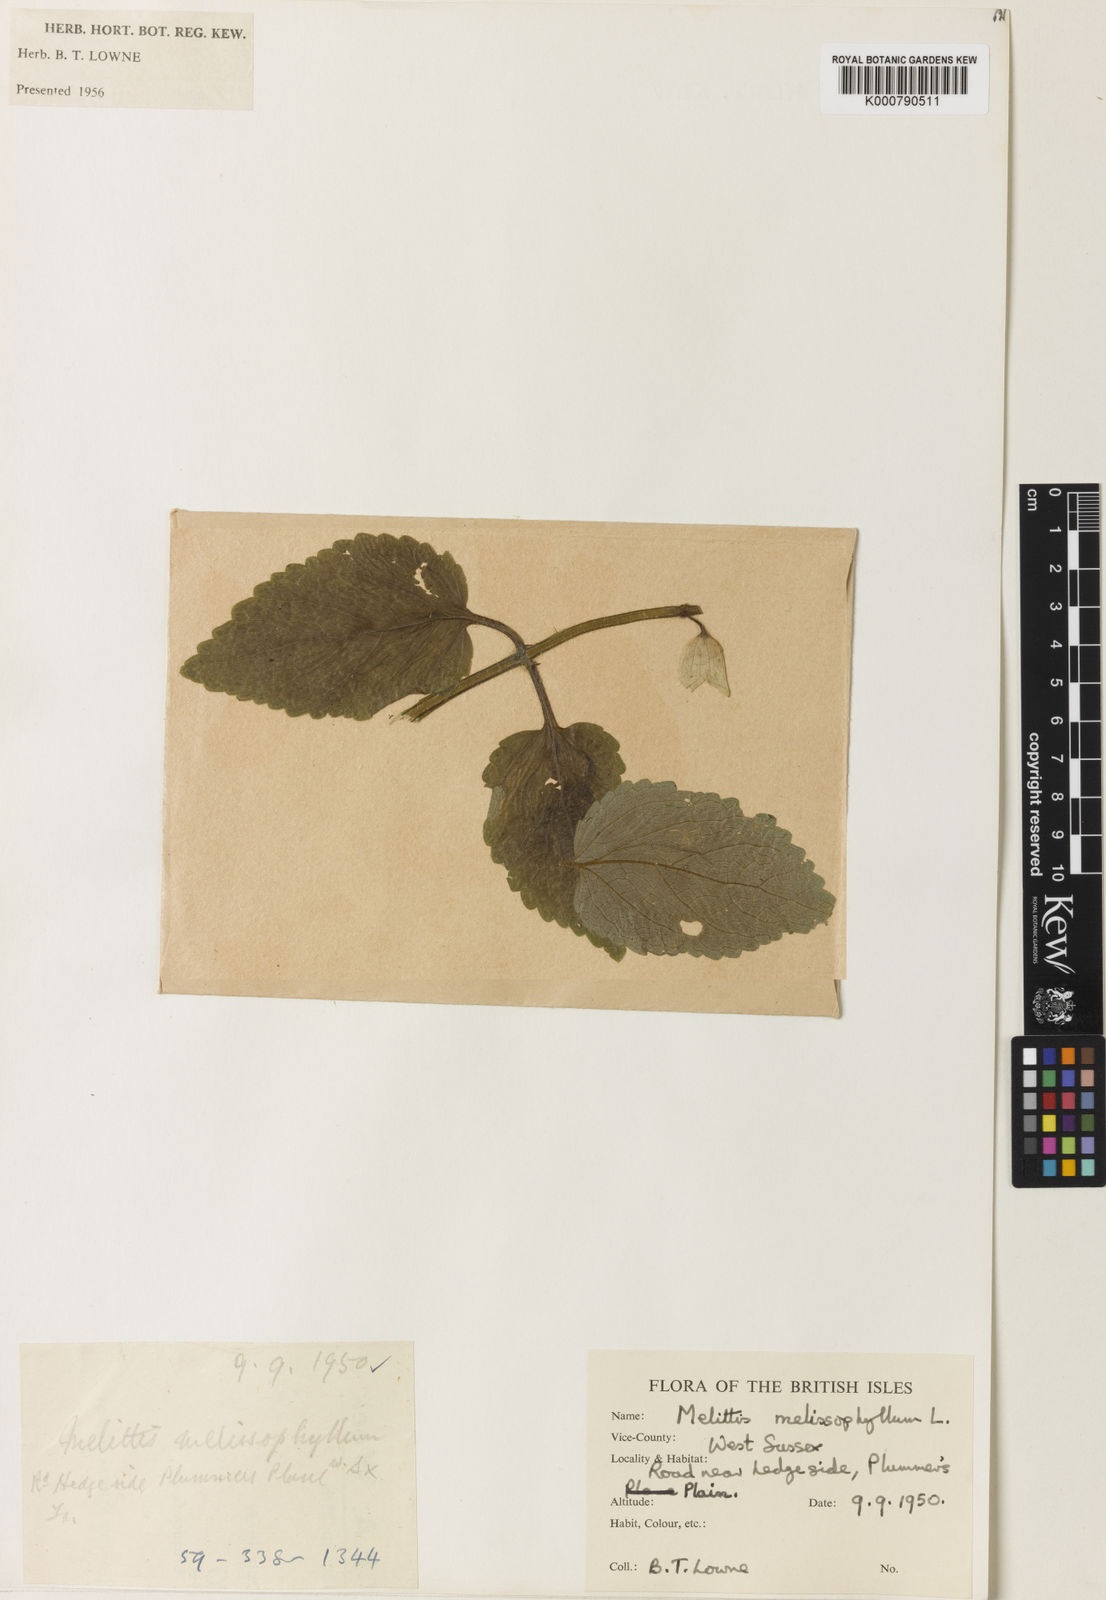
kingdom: Plantae
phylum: Tracheophyta
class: Magnoliopsida
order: Lamiales
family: Lamiaceae
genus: Melittis
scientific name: Melittis melissophyllum
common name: Bastard balm
